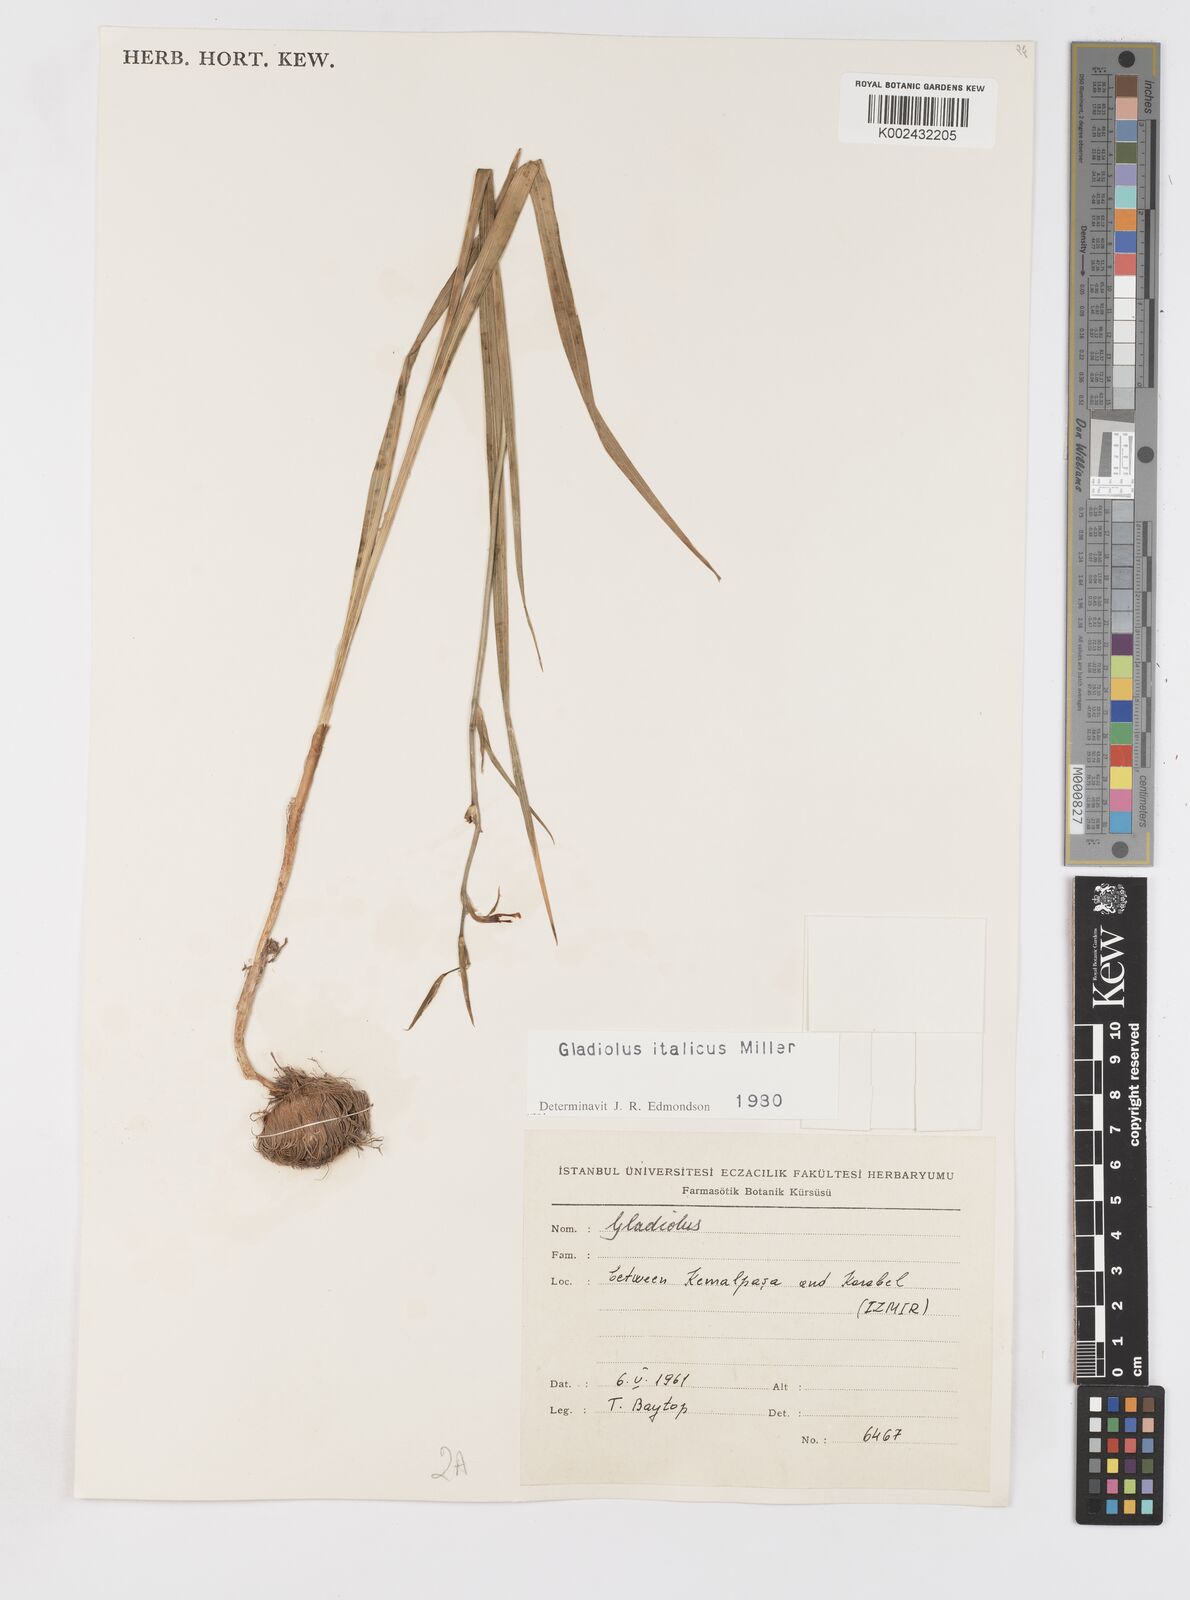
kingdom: Plantae
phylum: Tracheophyta
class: Liliopsida
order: Asparagales
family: Iridaceae
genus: Gladiolus
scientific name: Gladiolus italicus
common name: Field gladiolus
